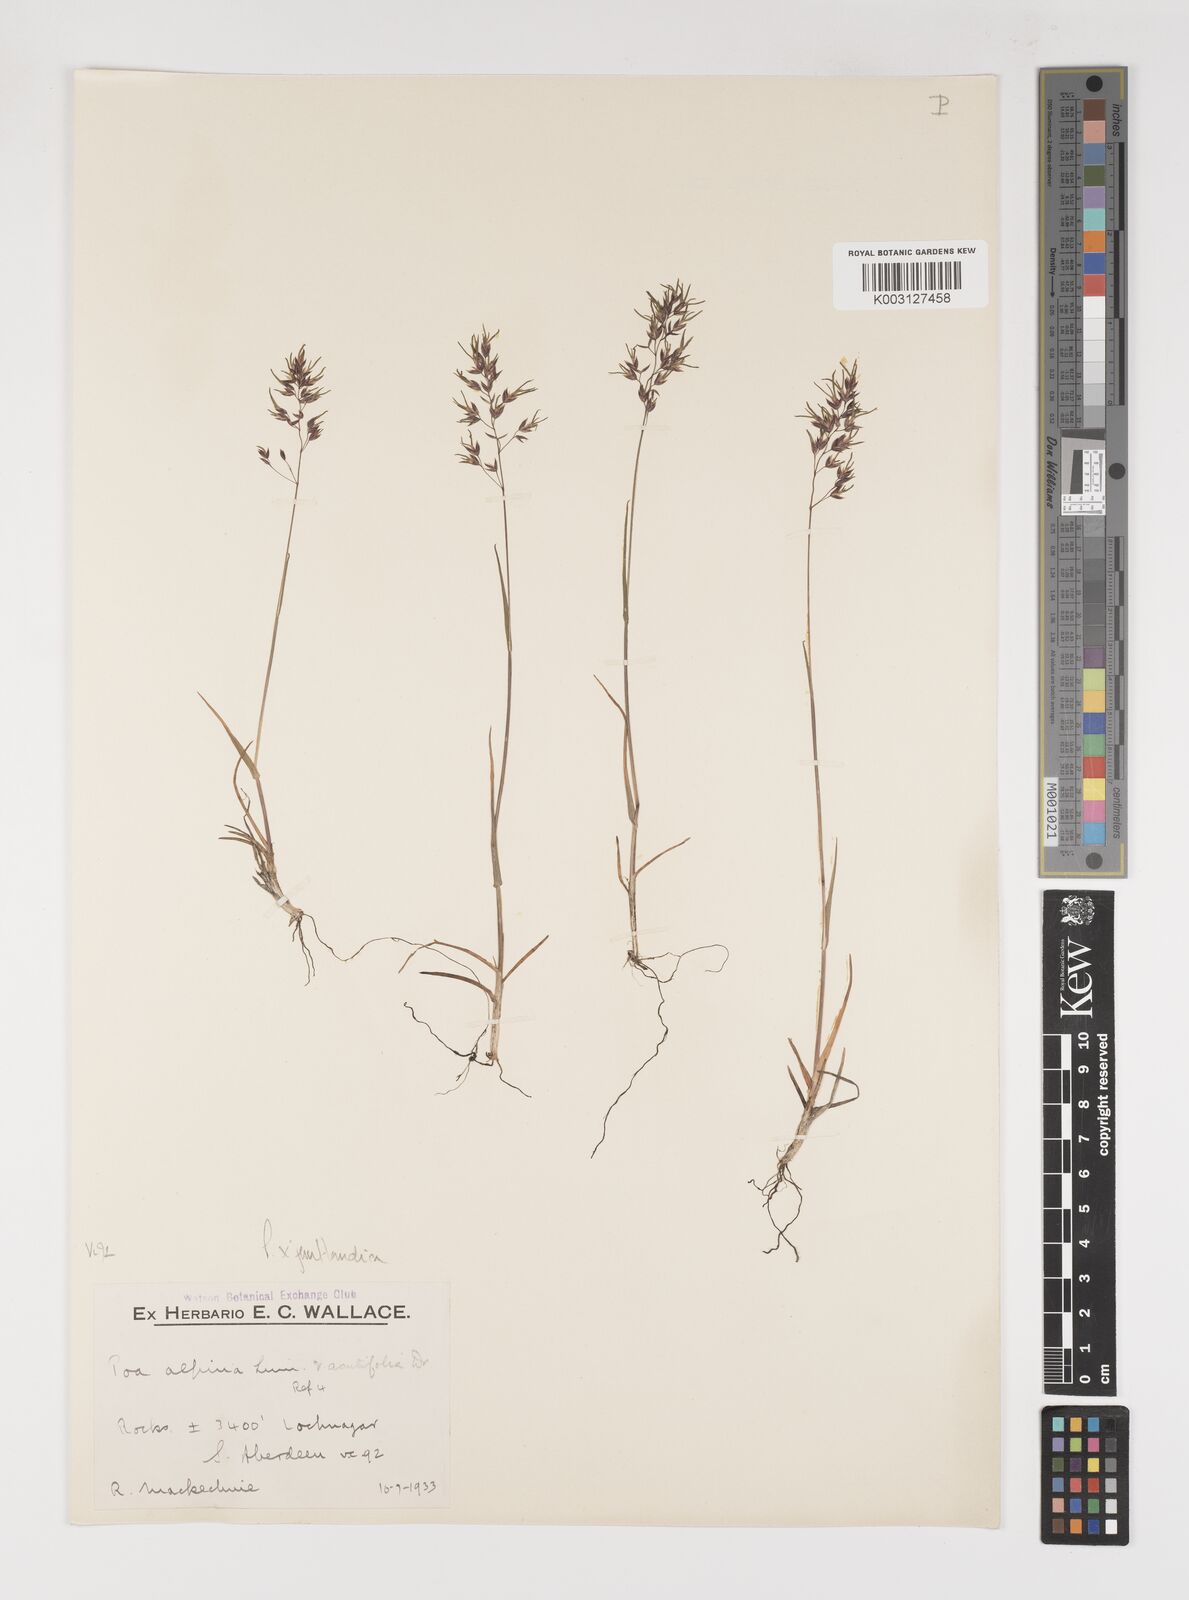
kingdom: Plantae
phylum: Tracheophyta
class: Liliopsida
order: Poales
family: Poaceae
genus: Poa
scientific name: Poa jemtlandica
